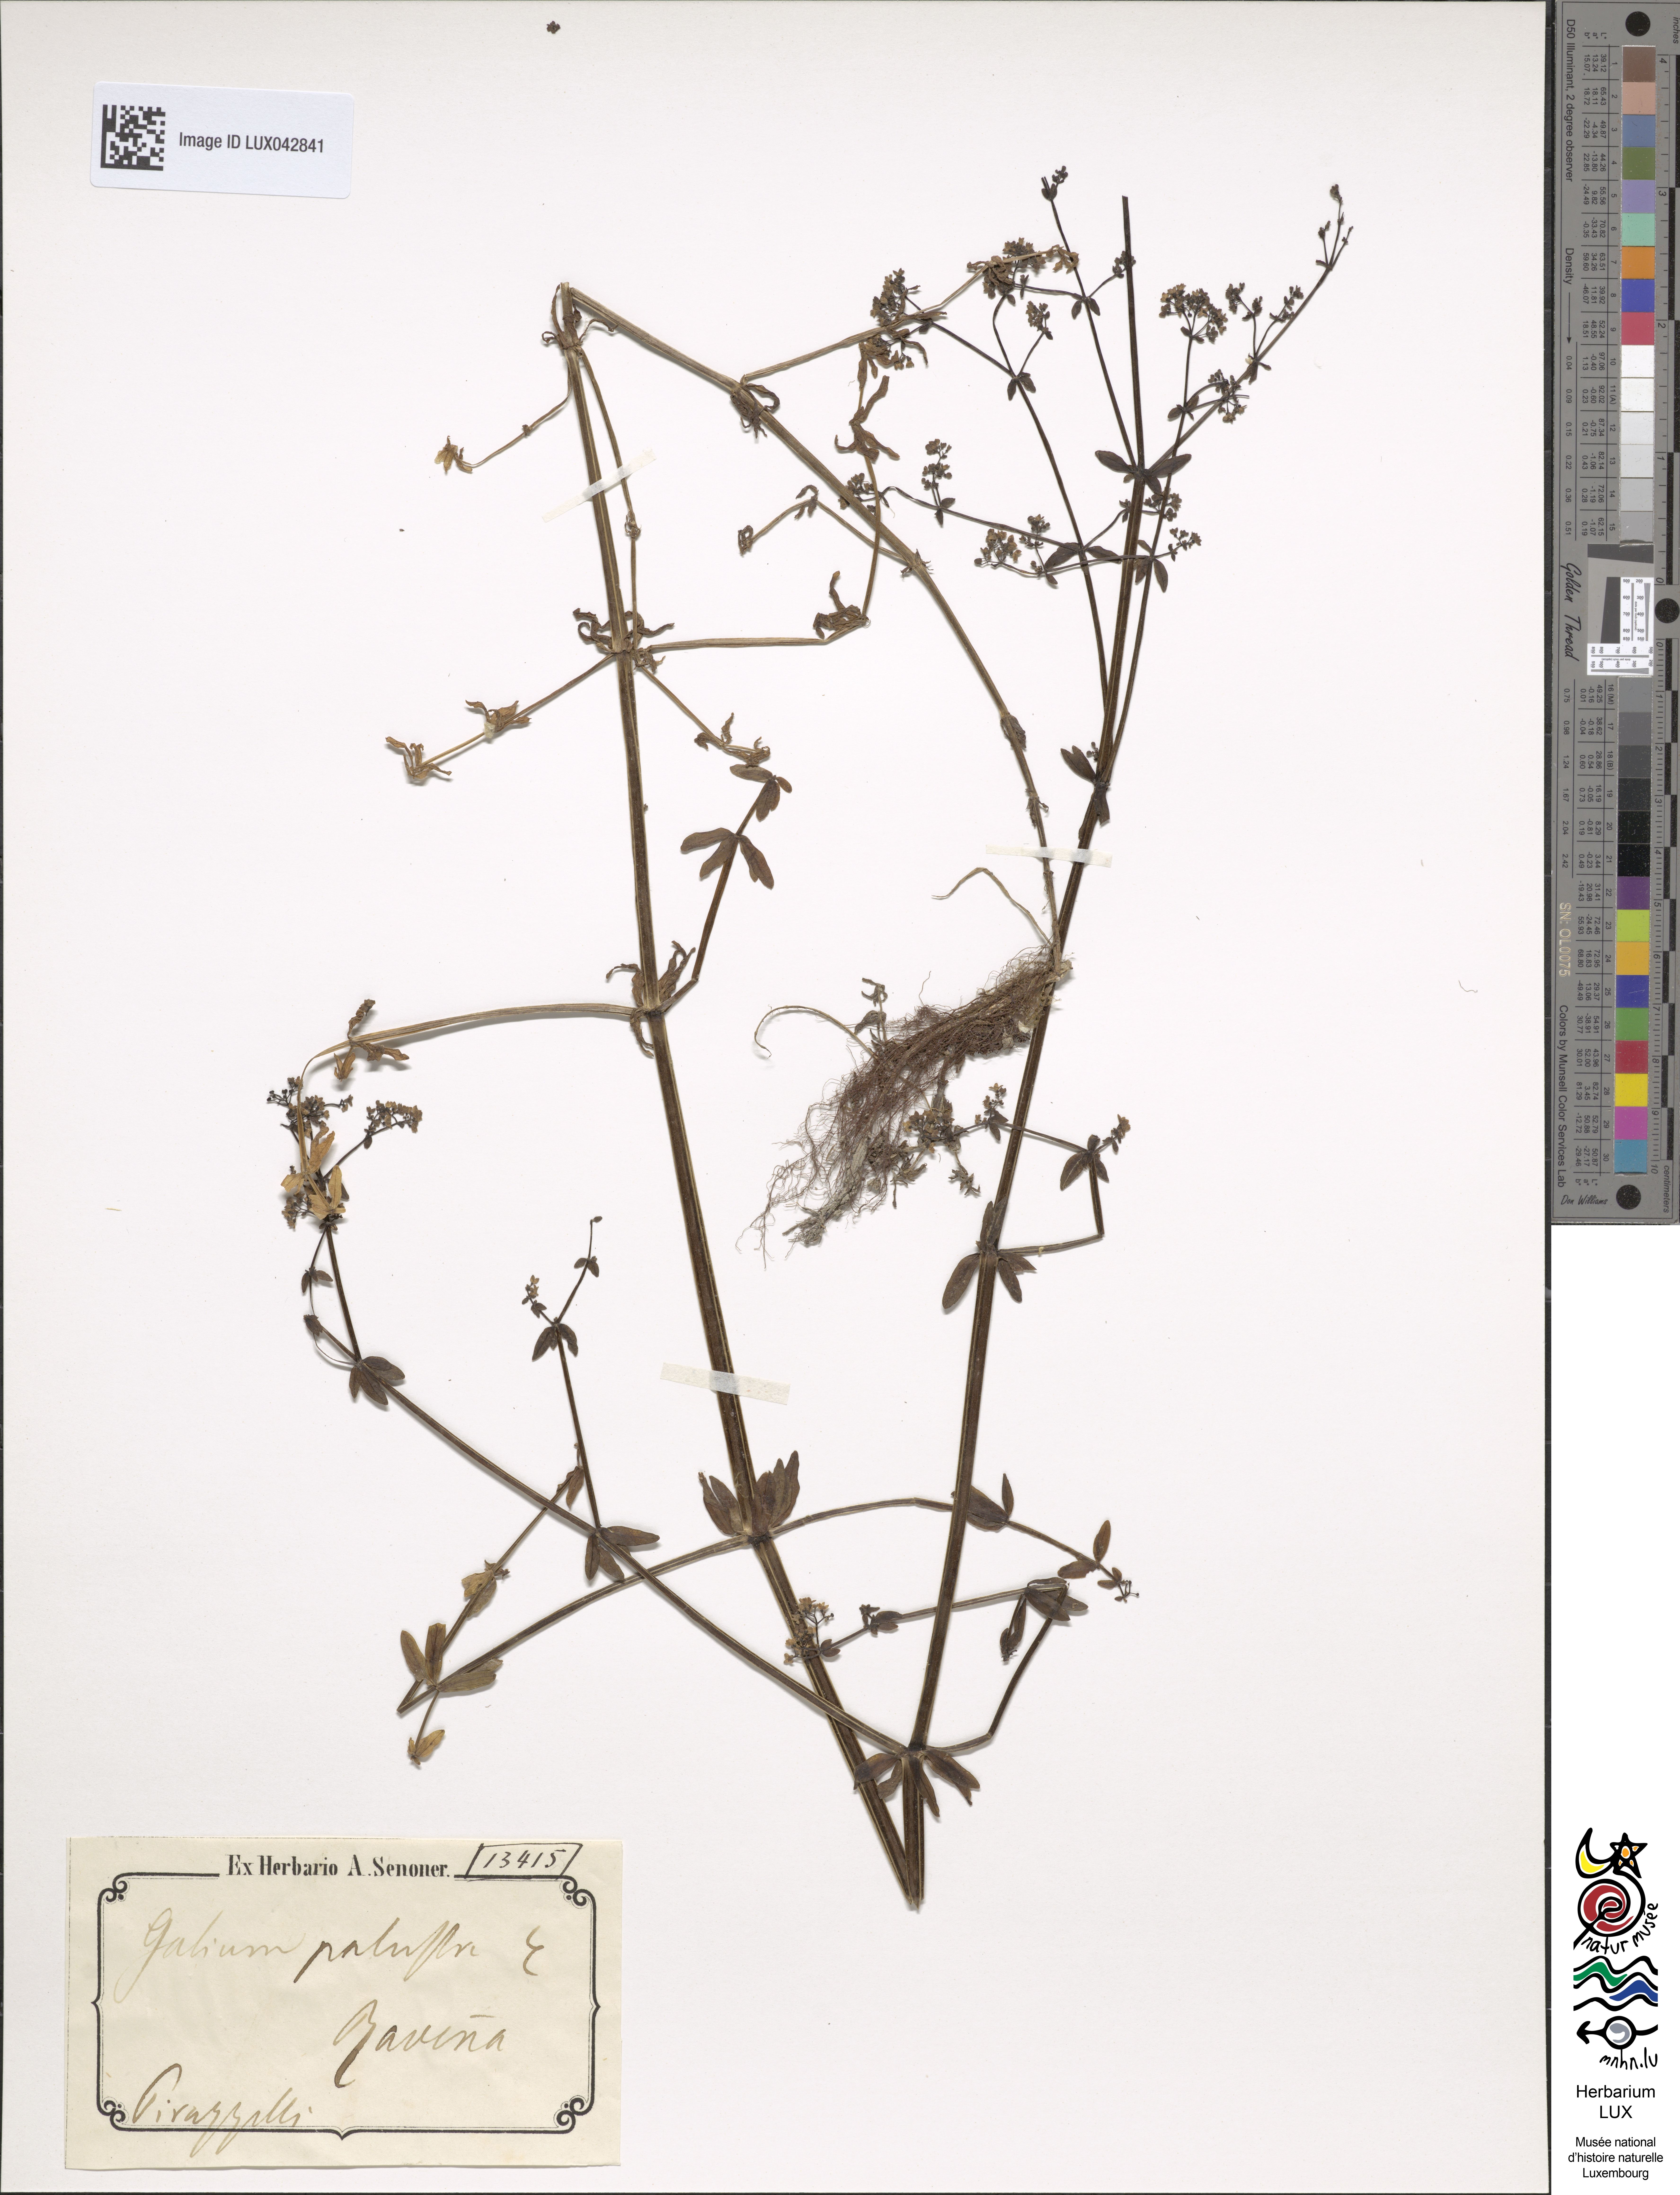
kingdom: Plantae
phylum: Tracheophyta
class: Magnoliopsida
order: Gentianales
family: Rubiaceae
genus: Galium
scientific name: Galium palustre
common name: Common marsh-bedstraw
